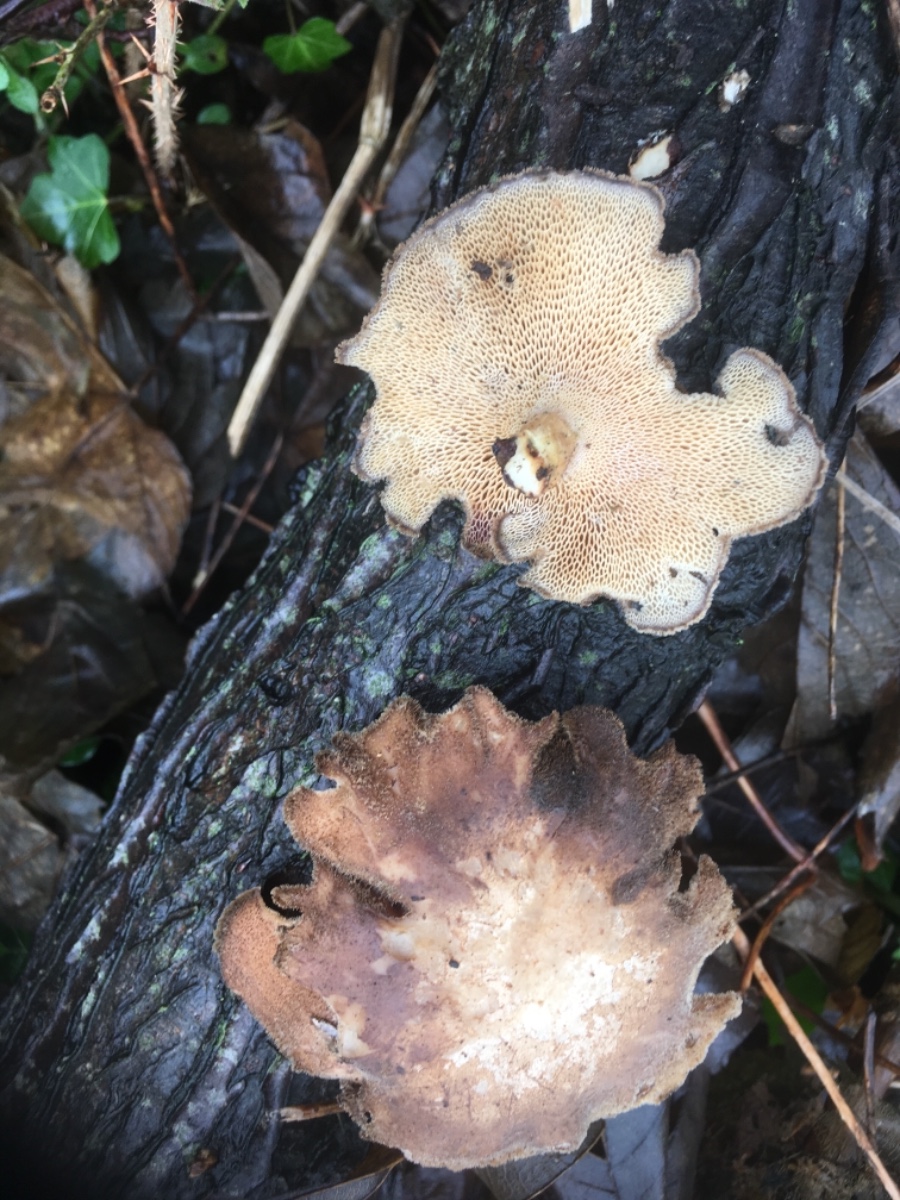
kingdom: Fungi
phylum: Basidiomycota
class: Agaricomycetes
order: Polyporales
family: Polyporaceae
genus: Lentinus
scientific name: Lentinus brumalis
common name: vinter-stilkporesvamp
